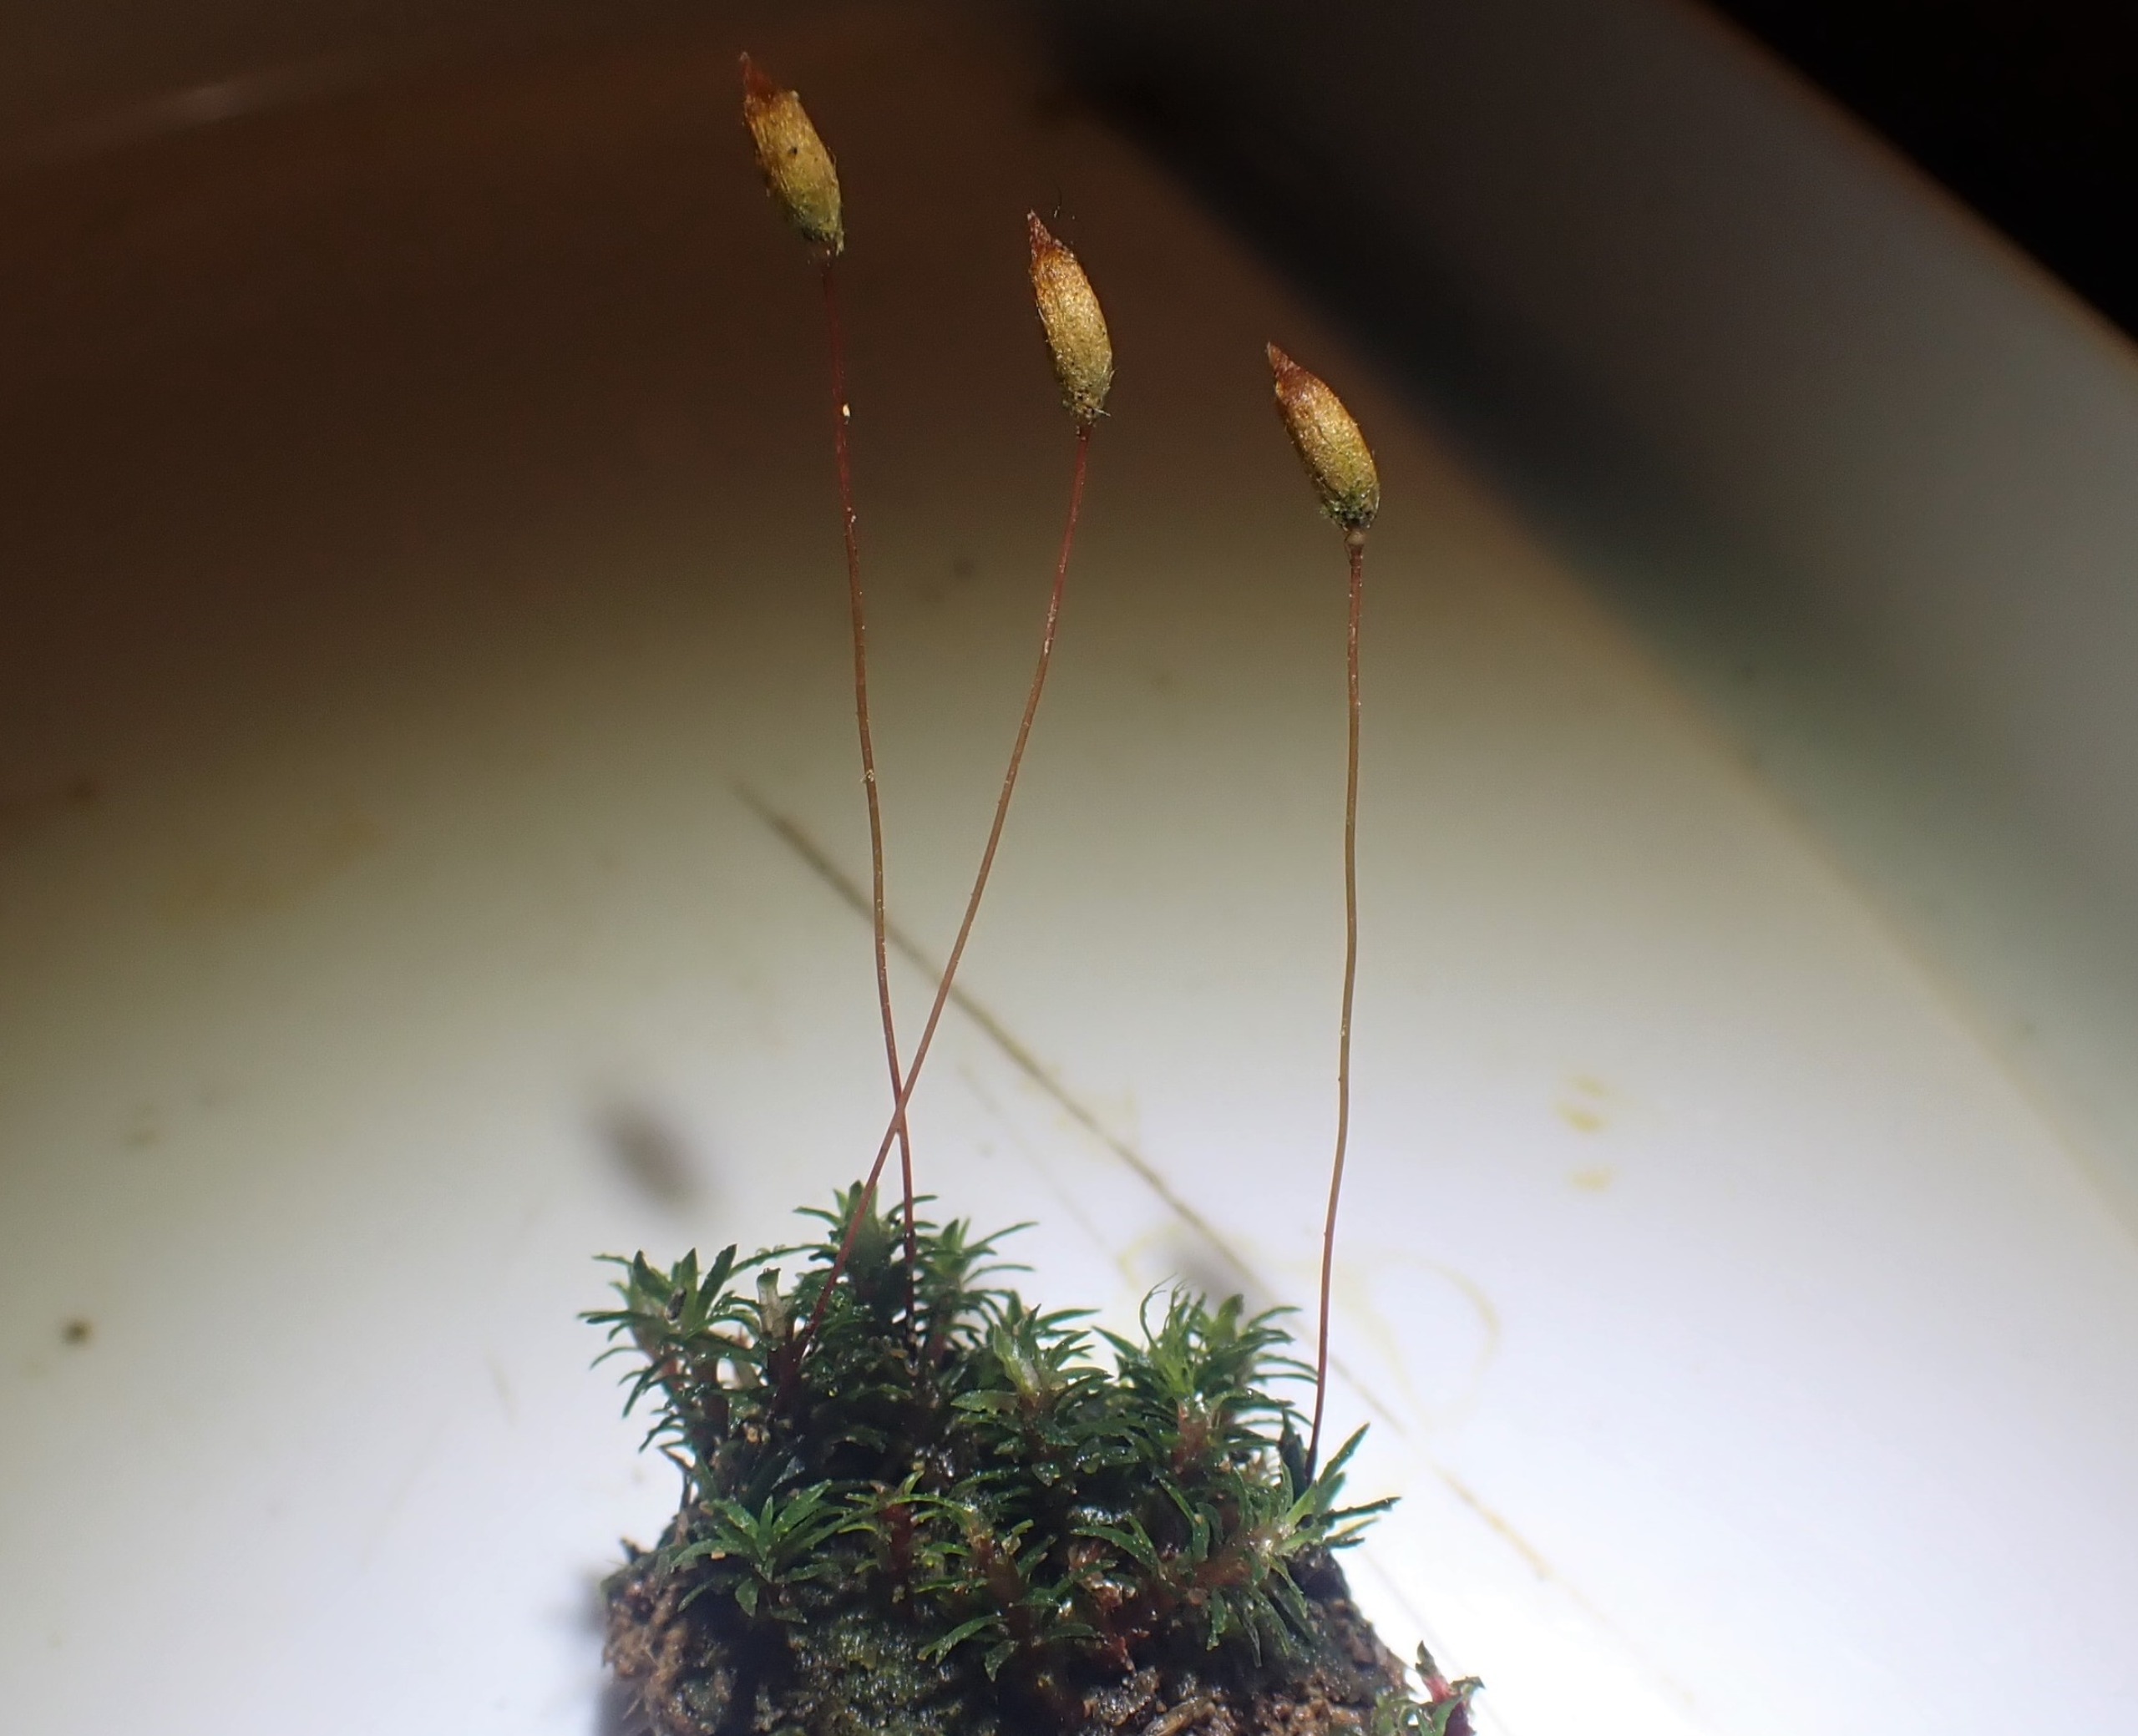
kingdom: Plantae
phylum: Bryophyta
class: Polytrichopsida
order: Polytrichales
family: Polytrichaceae
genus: Pogonatum
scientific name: Pogonatum aloides
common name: Smal urnekapsel
